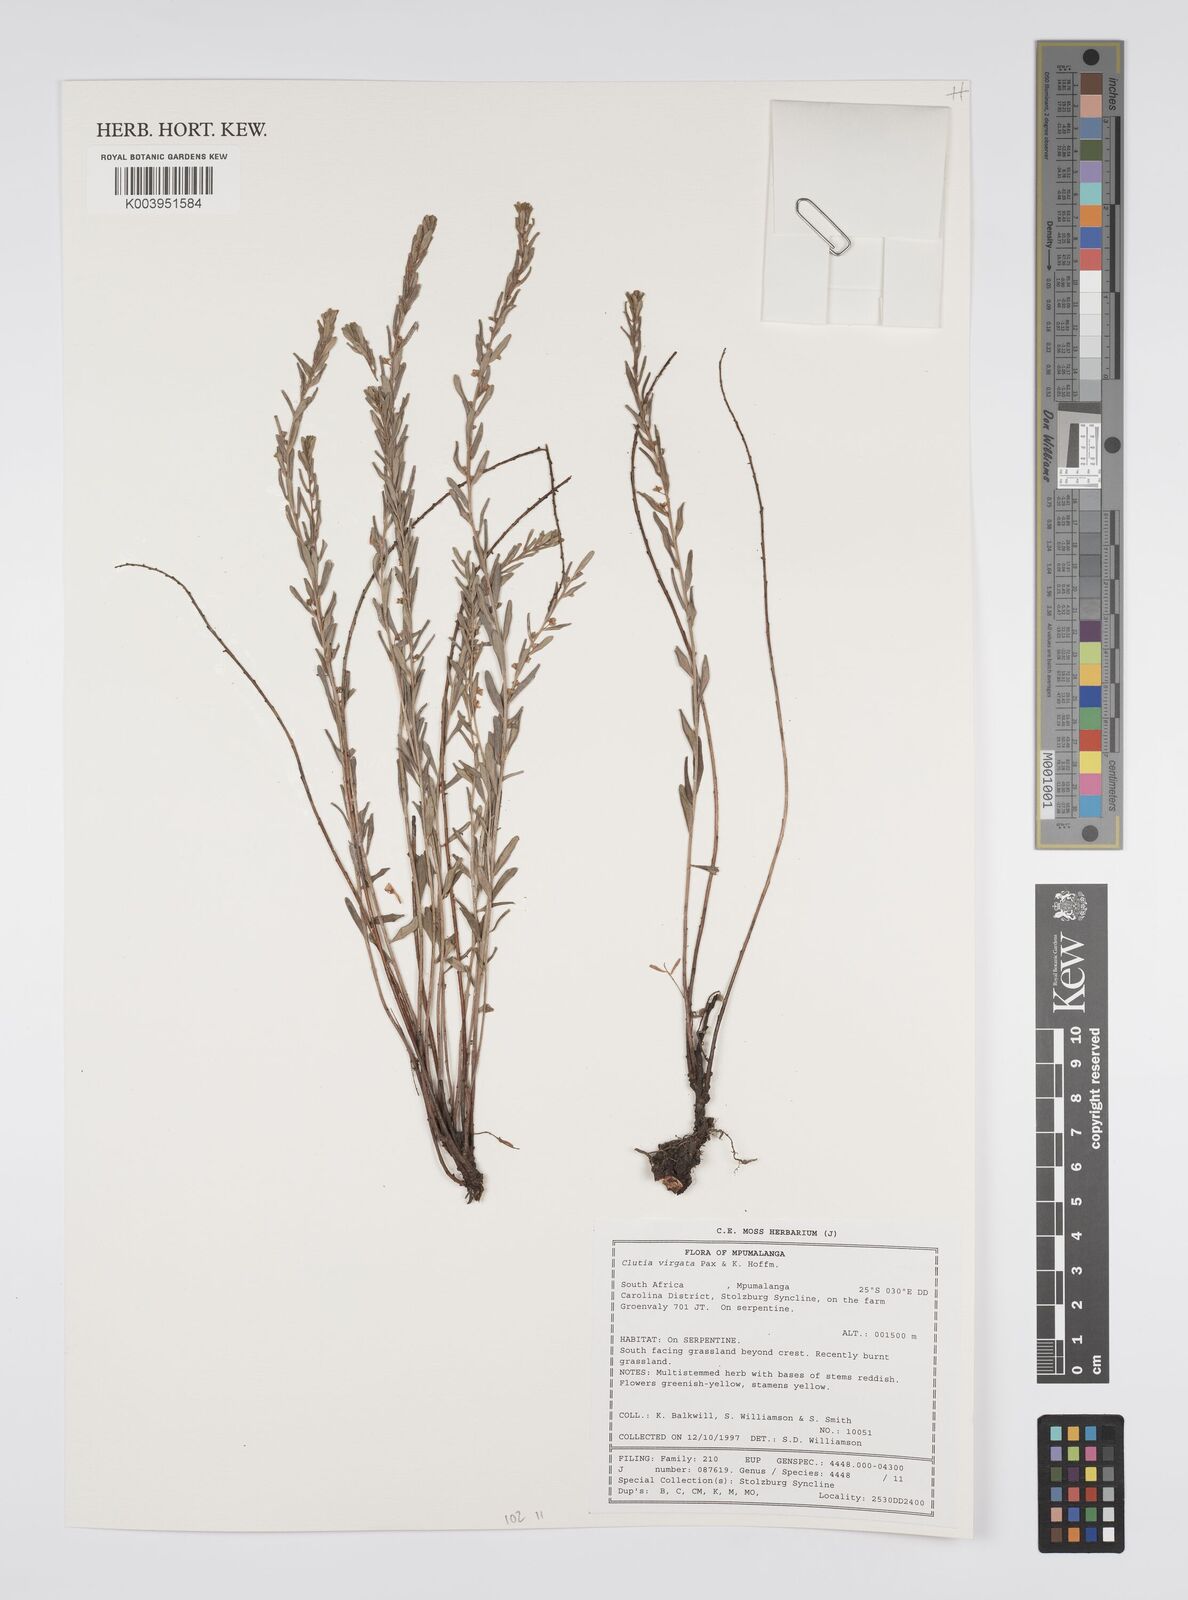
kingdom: Plantae
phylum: Tracheophyta
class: Magnoliopsida
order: Malpighiales
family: Peraceae
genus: Clutia
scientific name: Clutia virgata
